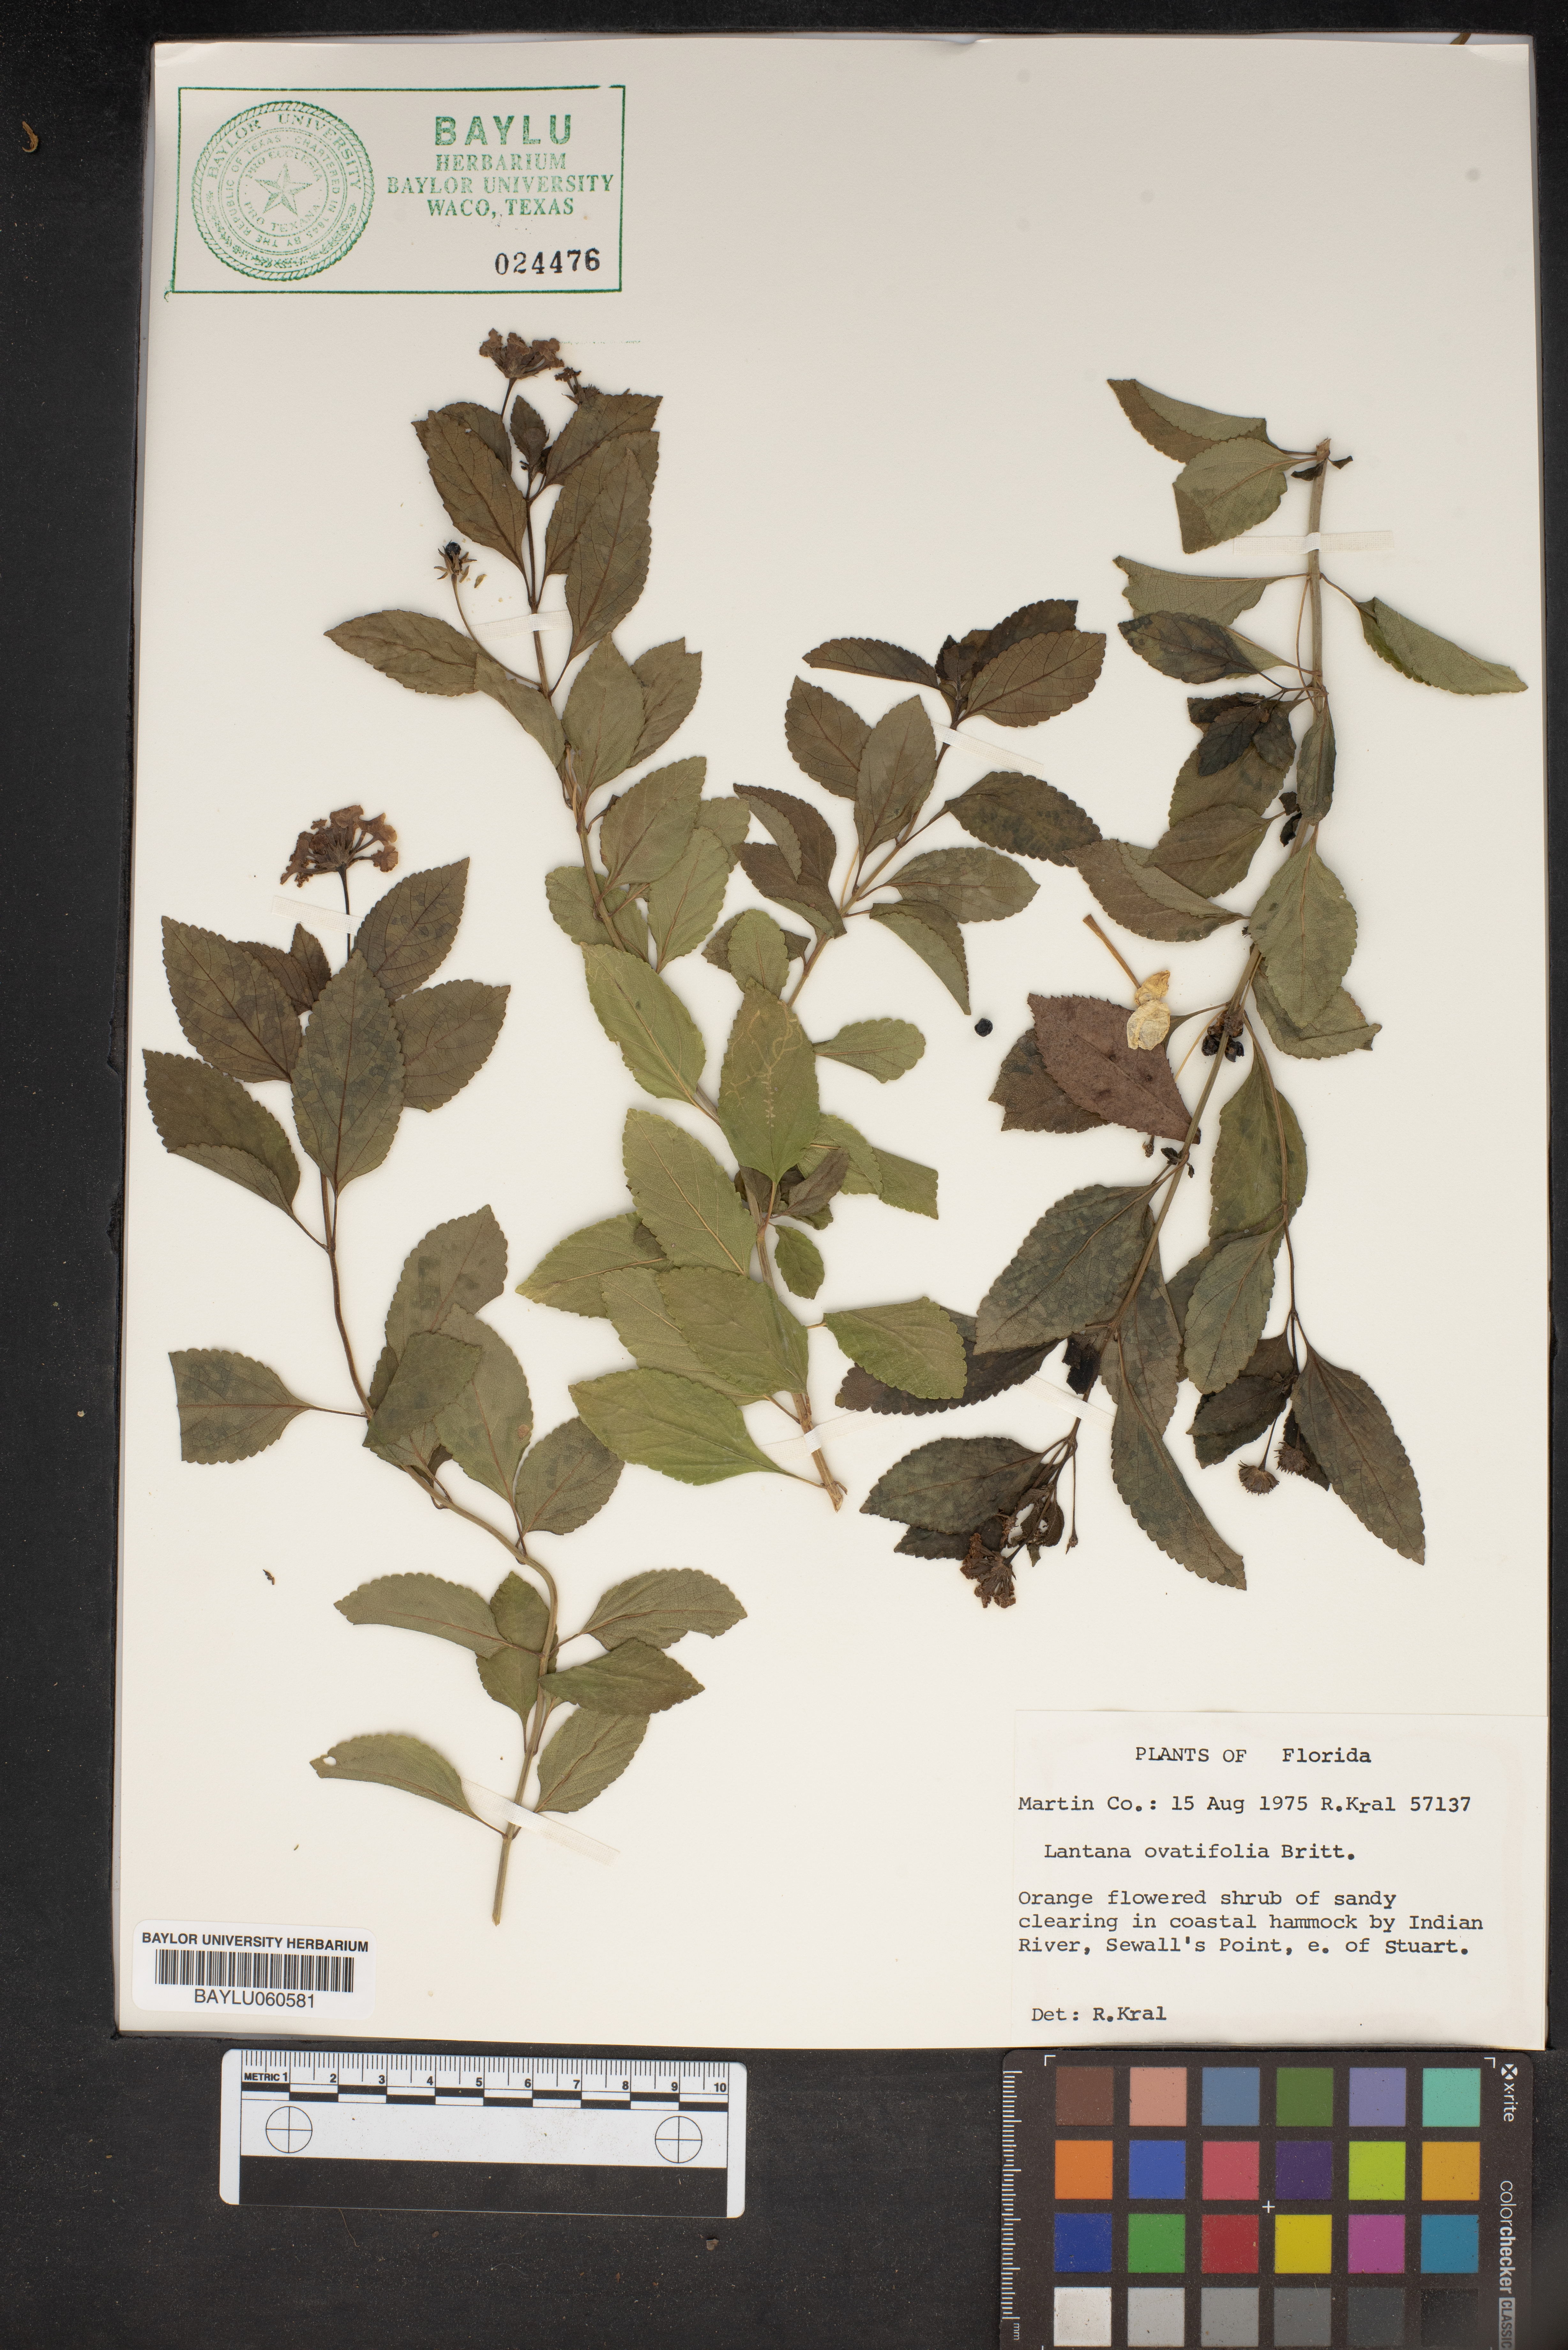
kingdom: Plantae
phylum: Tracheophyta
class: Magnoliopsida
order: Lamiales
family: Verbenaceae
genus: Lantana
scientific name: Lantana ovatifolia
